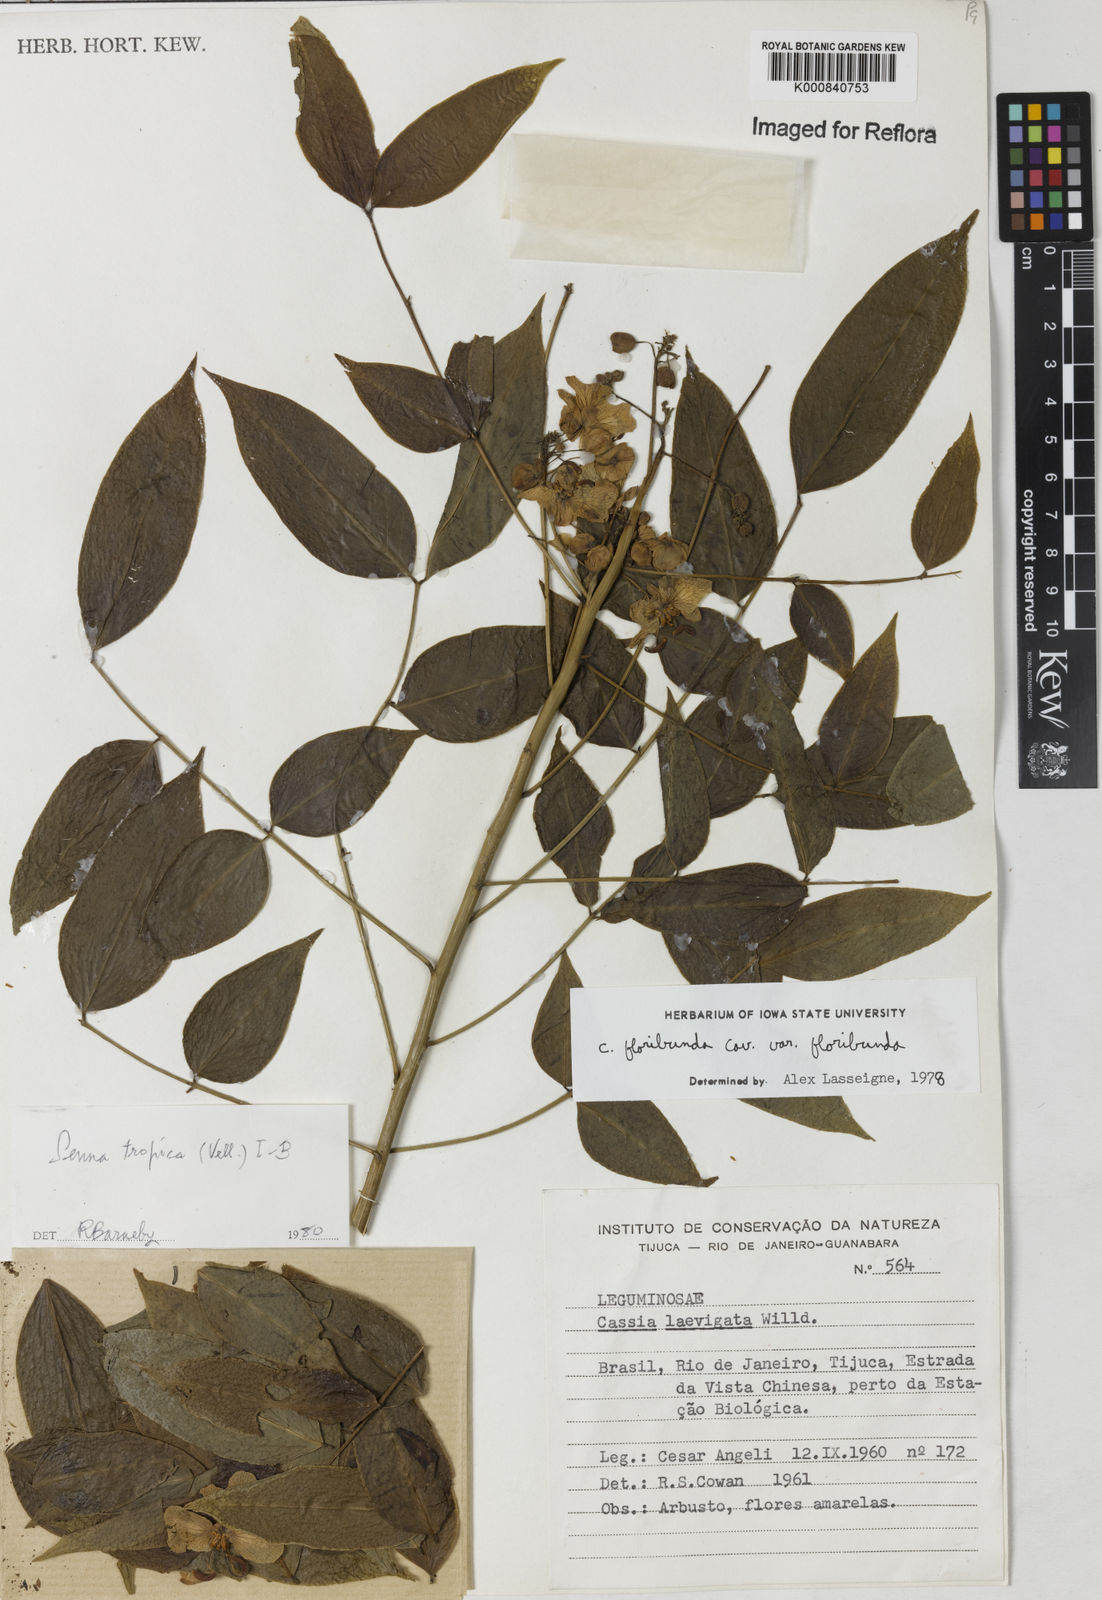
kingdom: Plantae
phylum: Tracheophyta
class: Magnoliopsida
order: Fabales
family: Fabaceae
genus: Senna
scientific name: Senna tropica
